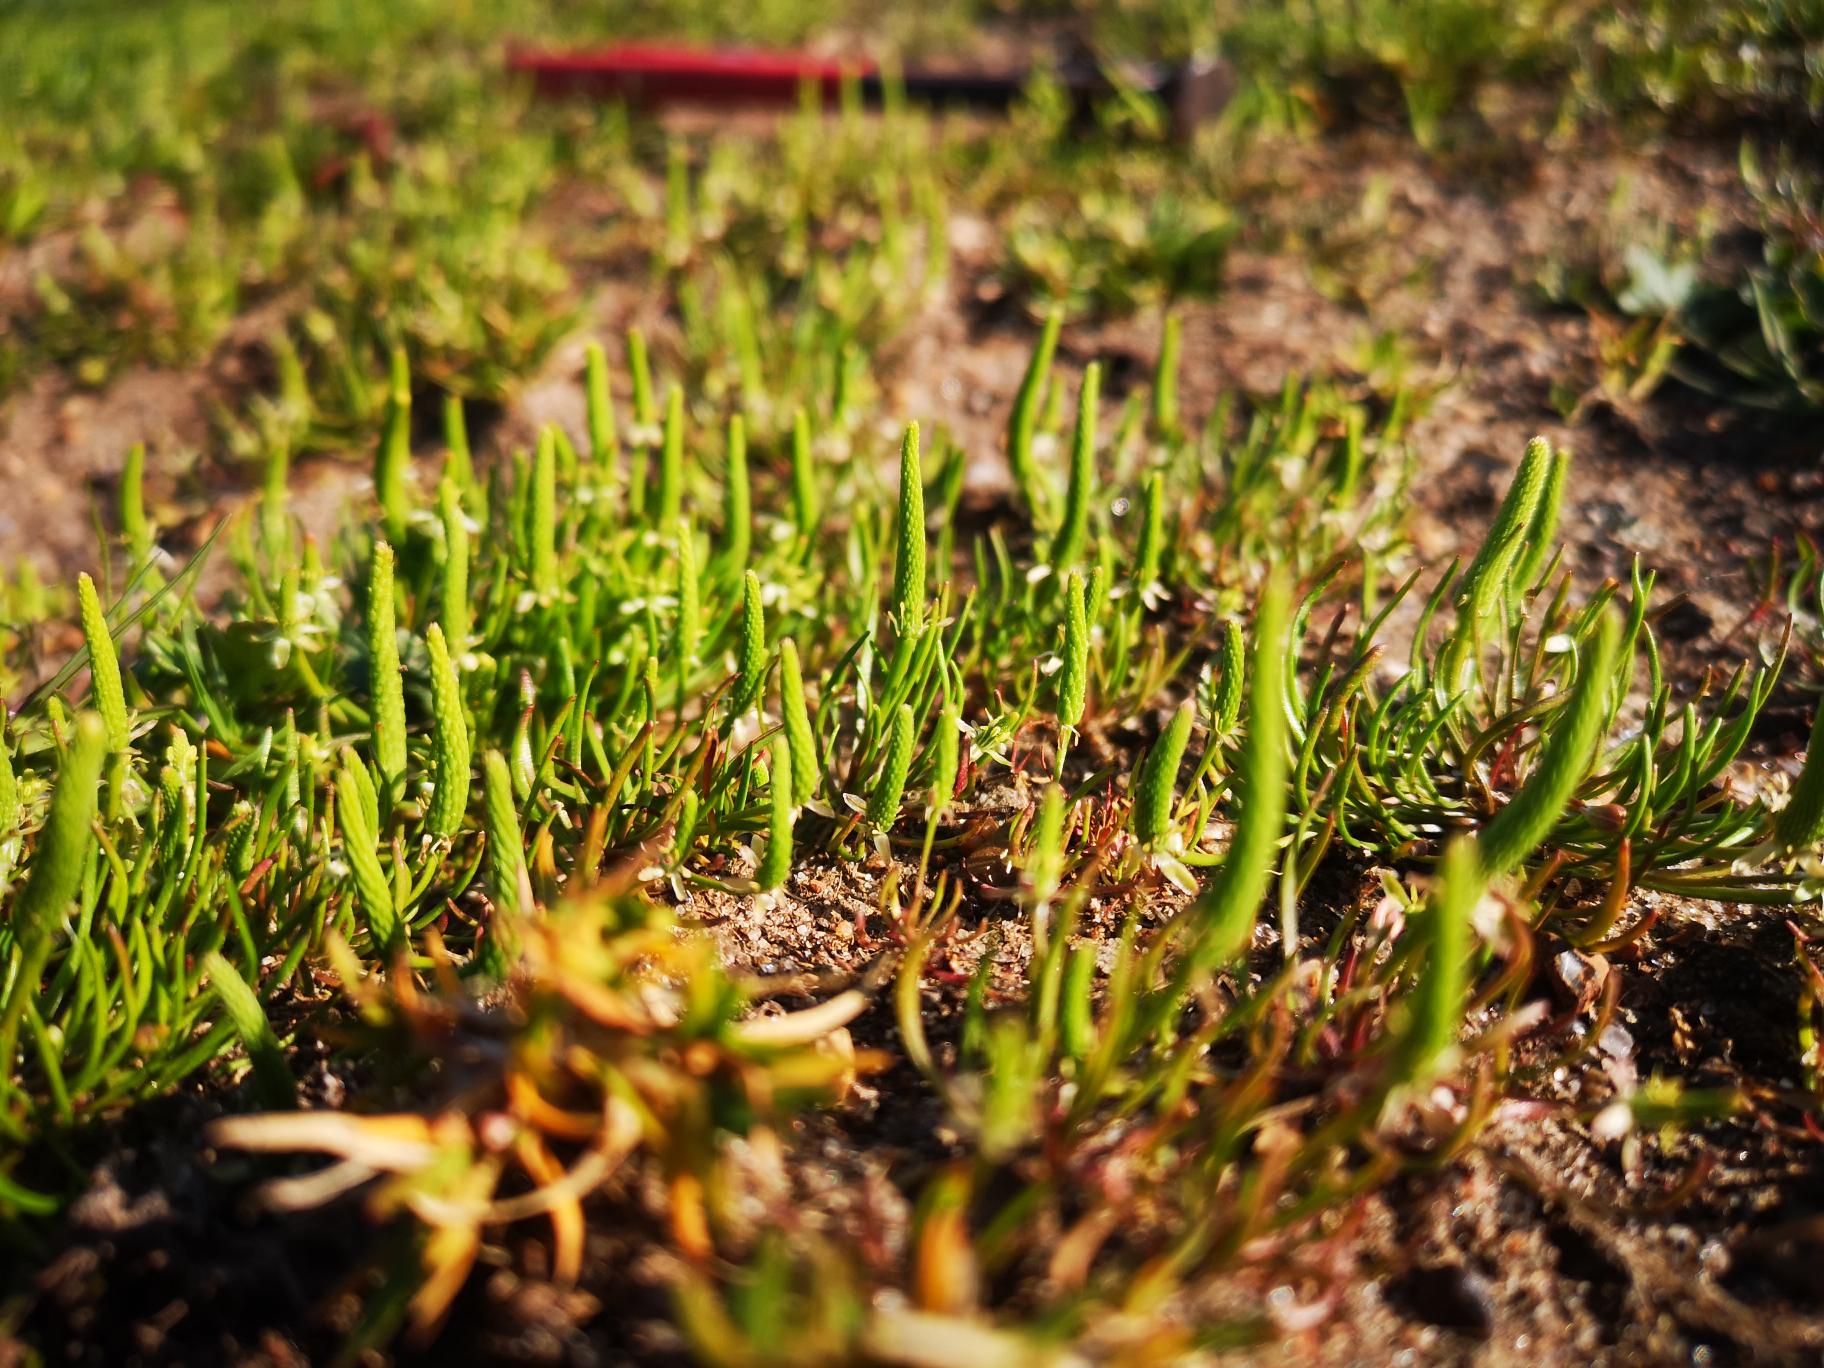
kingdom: Plantae
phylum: Tracheophyta
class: Magnoliopsida
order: Ranunculales
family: Ranunculaceae
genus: Myosurus
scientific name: Myosurus minimus
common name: Musehale
